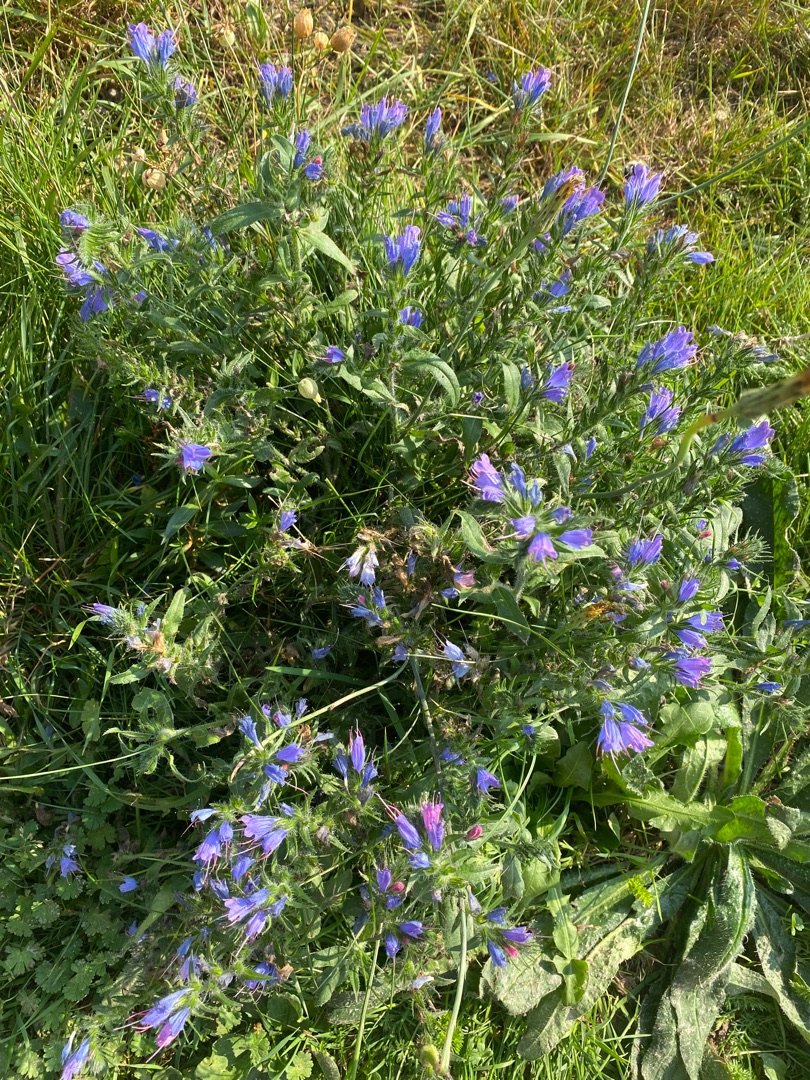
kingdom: Plantae
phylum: Tracheophyta
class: Magnoliopsida
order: Boraginales
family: Boraginaceae
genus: Echium
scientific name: Echium vulgare
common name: Slangehoved
